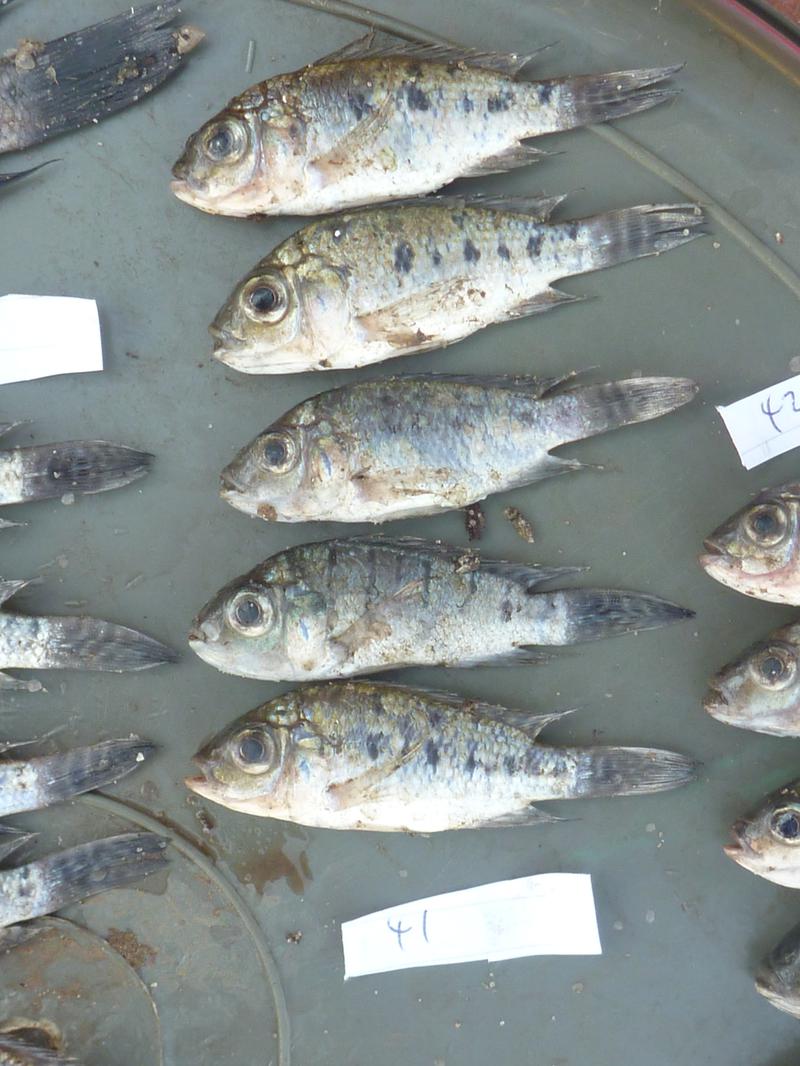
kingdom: Animalia
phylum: Chordata
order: Perciformes
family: Cichlidae
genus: Oreochromis
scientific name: Oreochromis korogwe
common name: Korogwe tilapia
